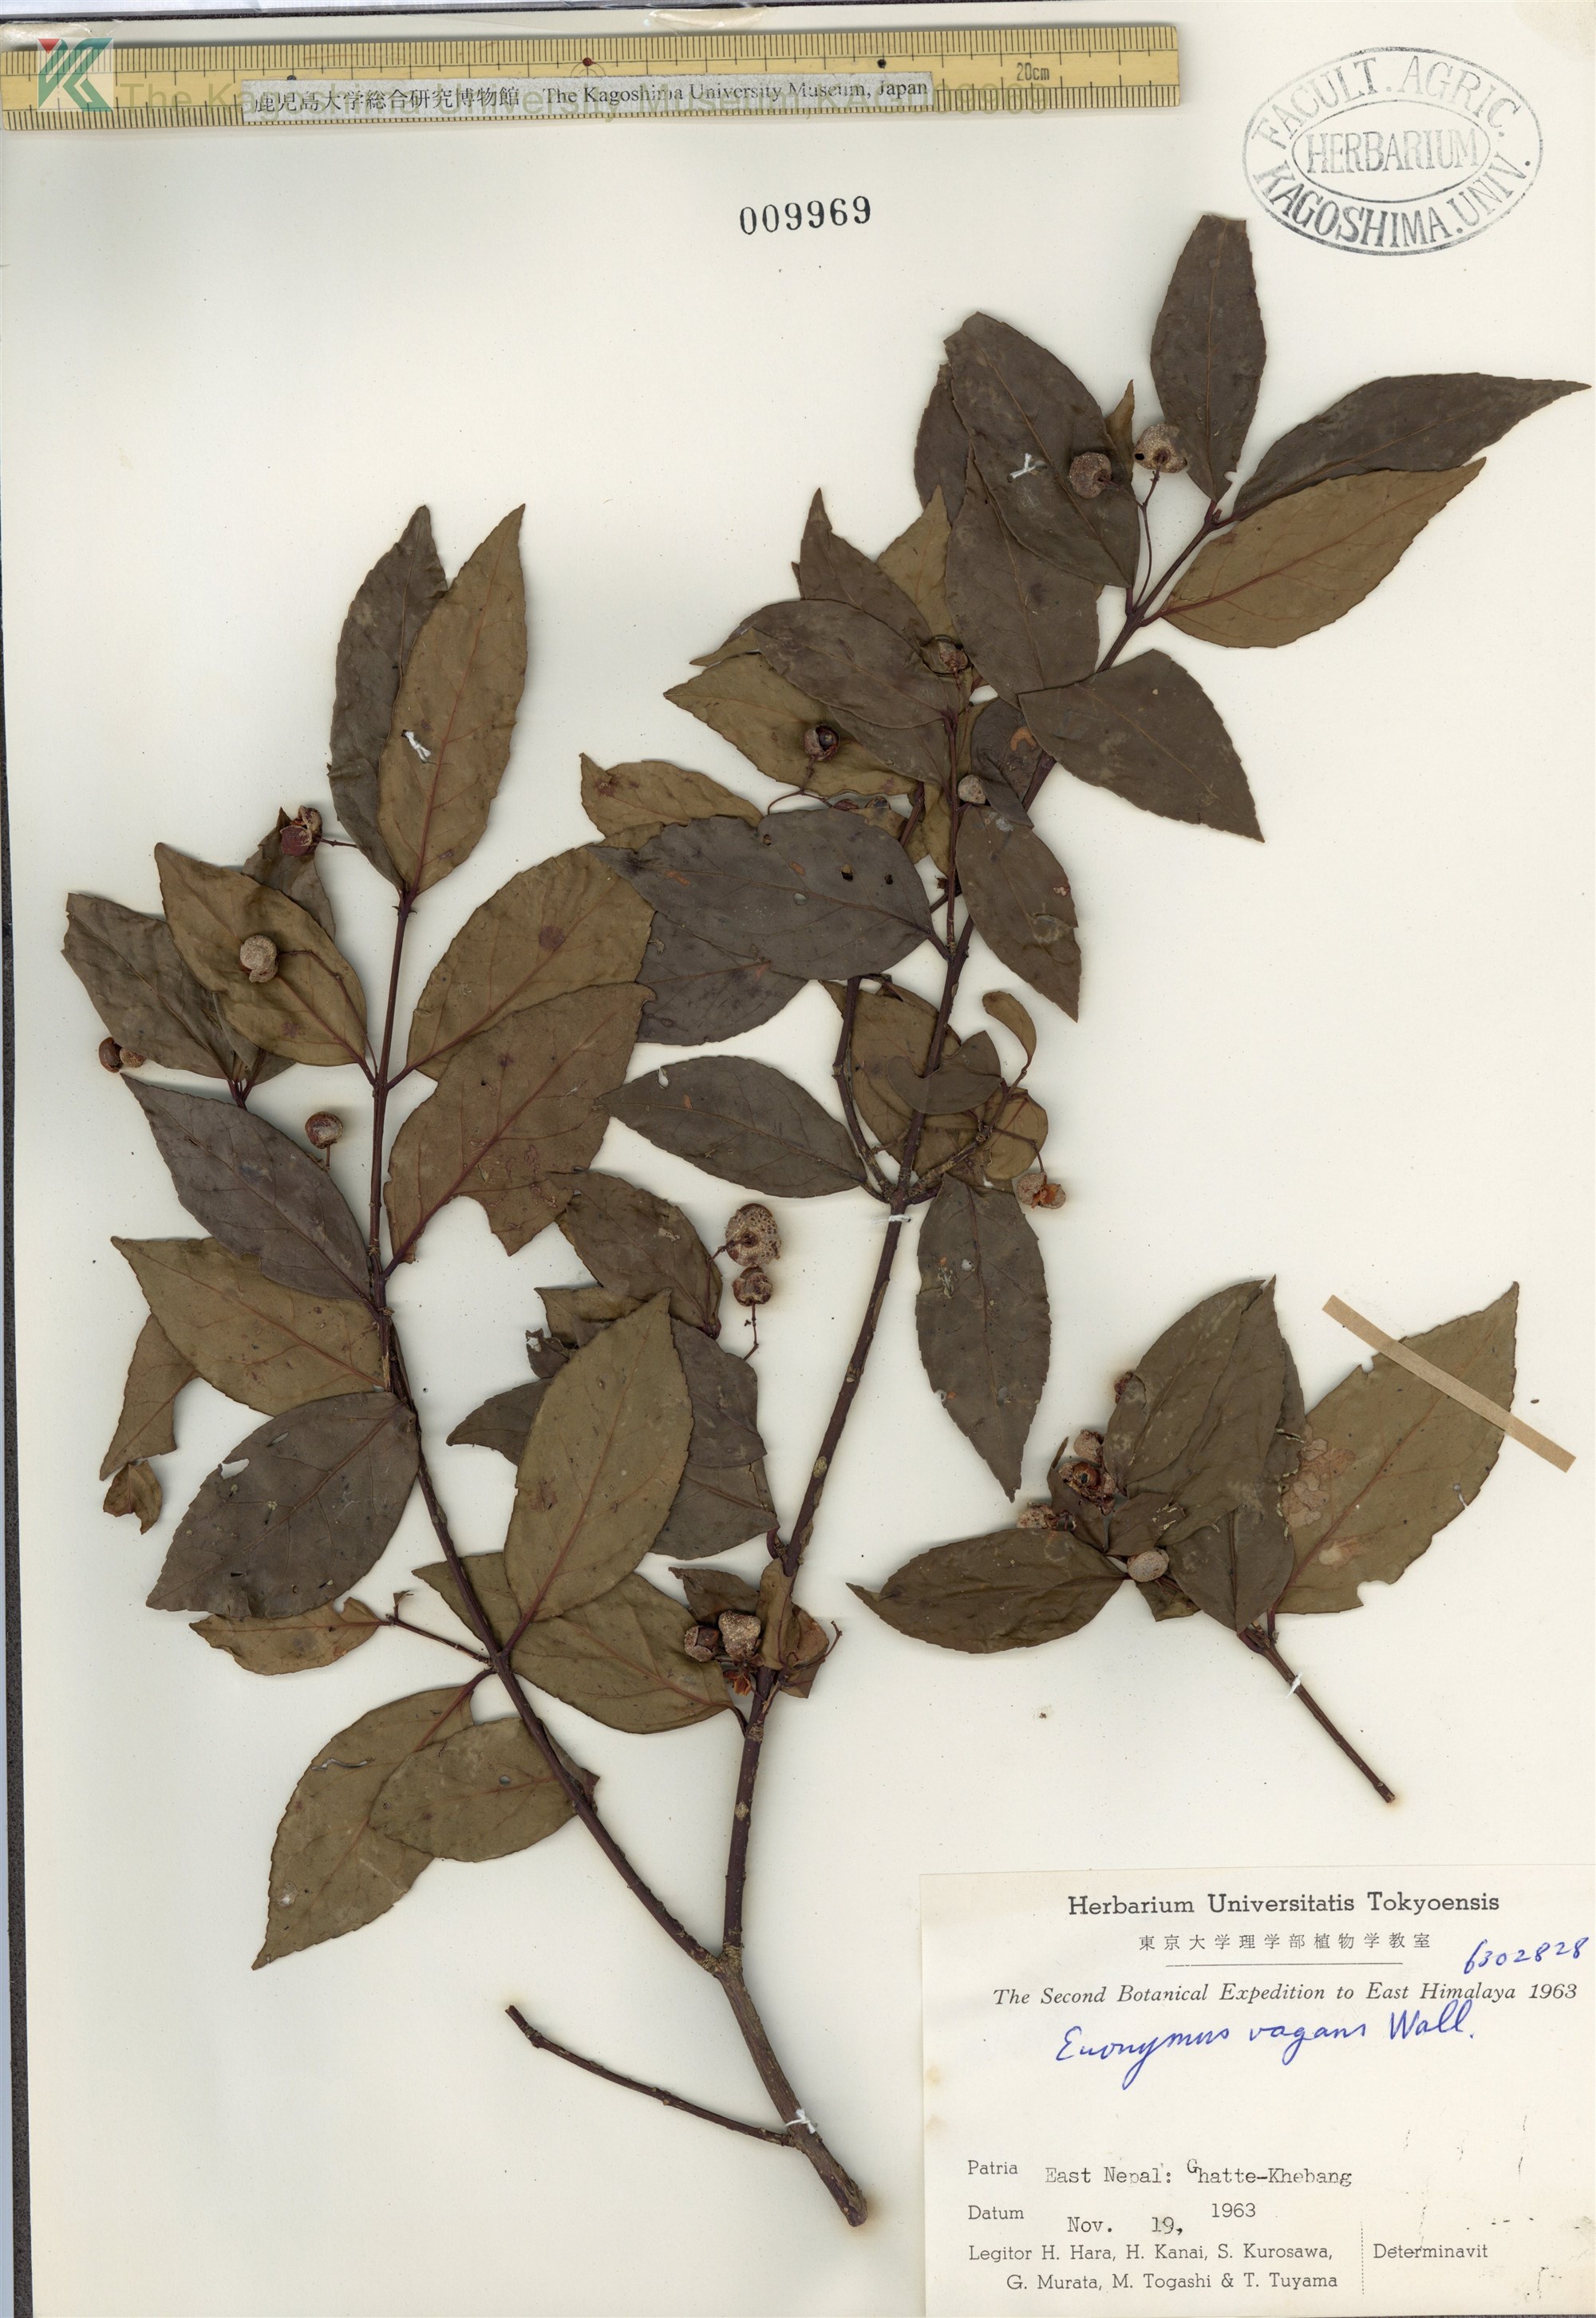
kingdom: Plantae
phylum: Tracheophyta
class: Magnoliopsida
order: Celastrales
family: Celastraceae
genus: Euonymus
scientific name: Euonymus vagans
